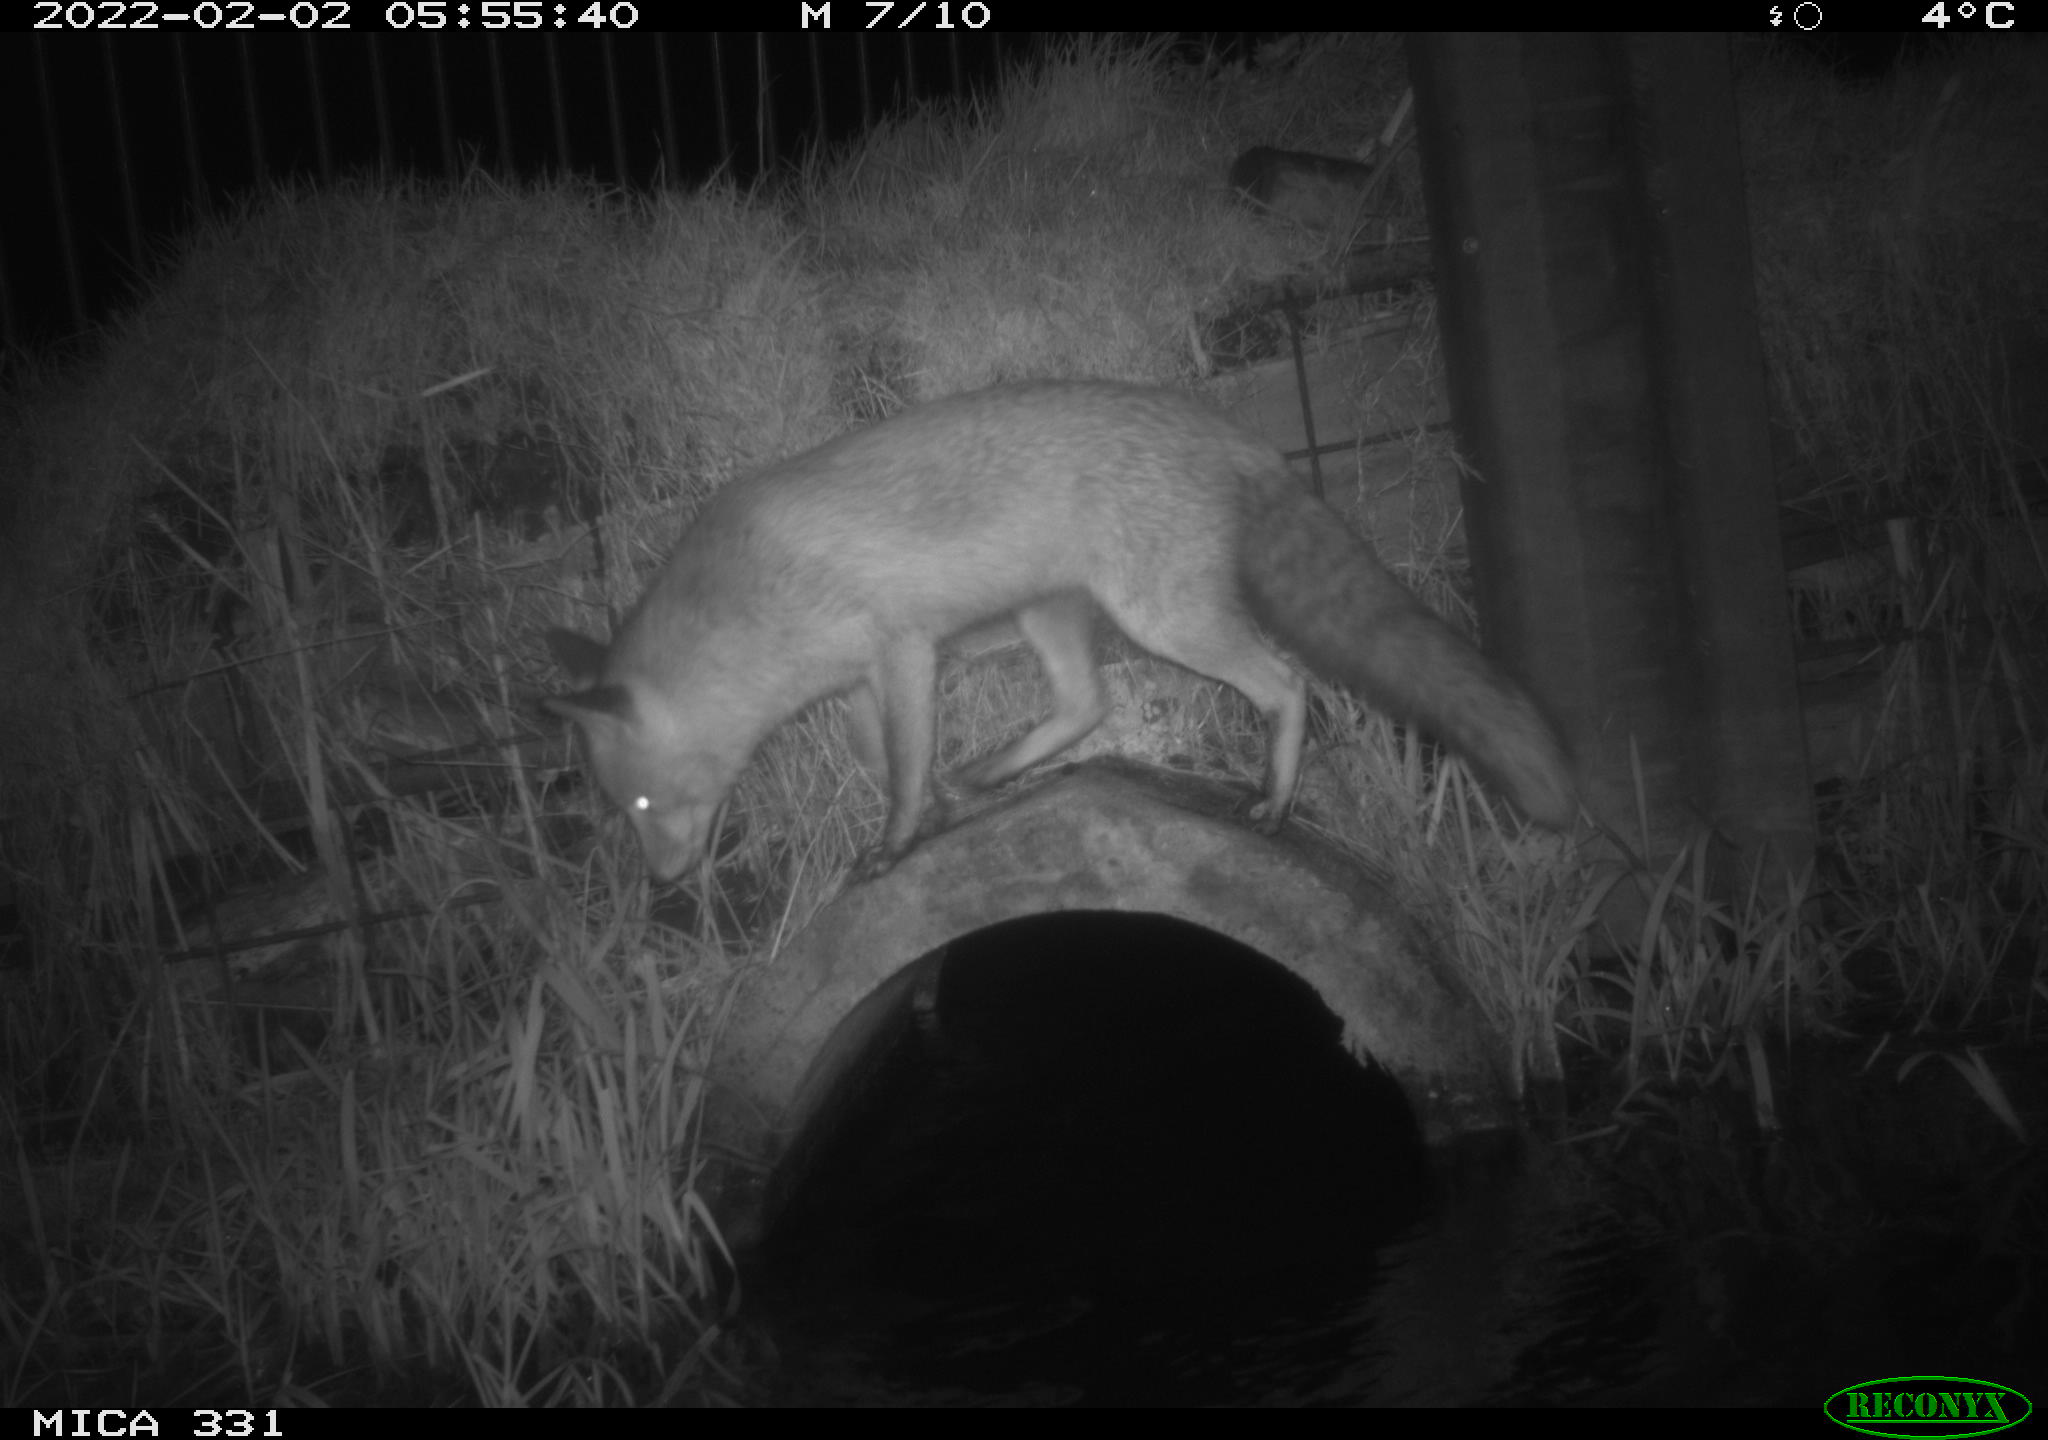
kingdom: Animalia
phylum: Chordata
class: Mammalia
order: Rodentia
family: Muridae
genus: Rattus
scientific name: Rattus norvegicus
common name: Brown rat
